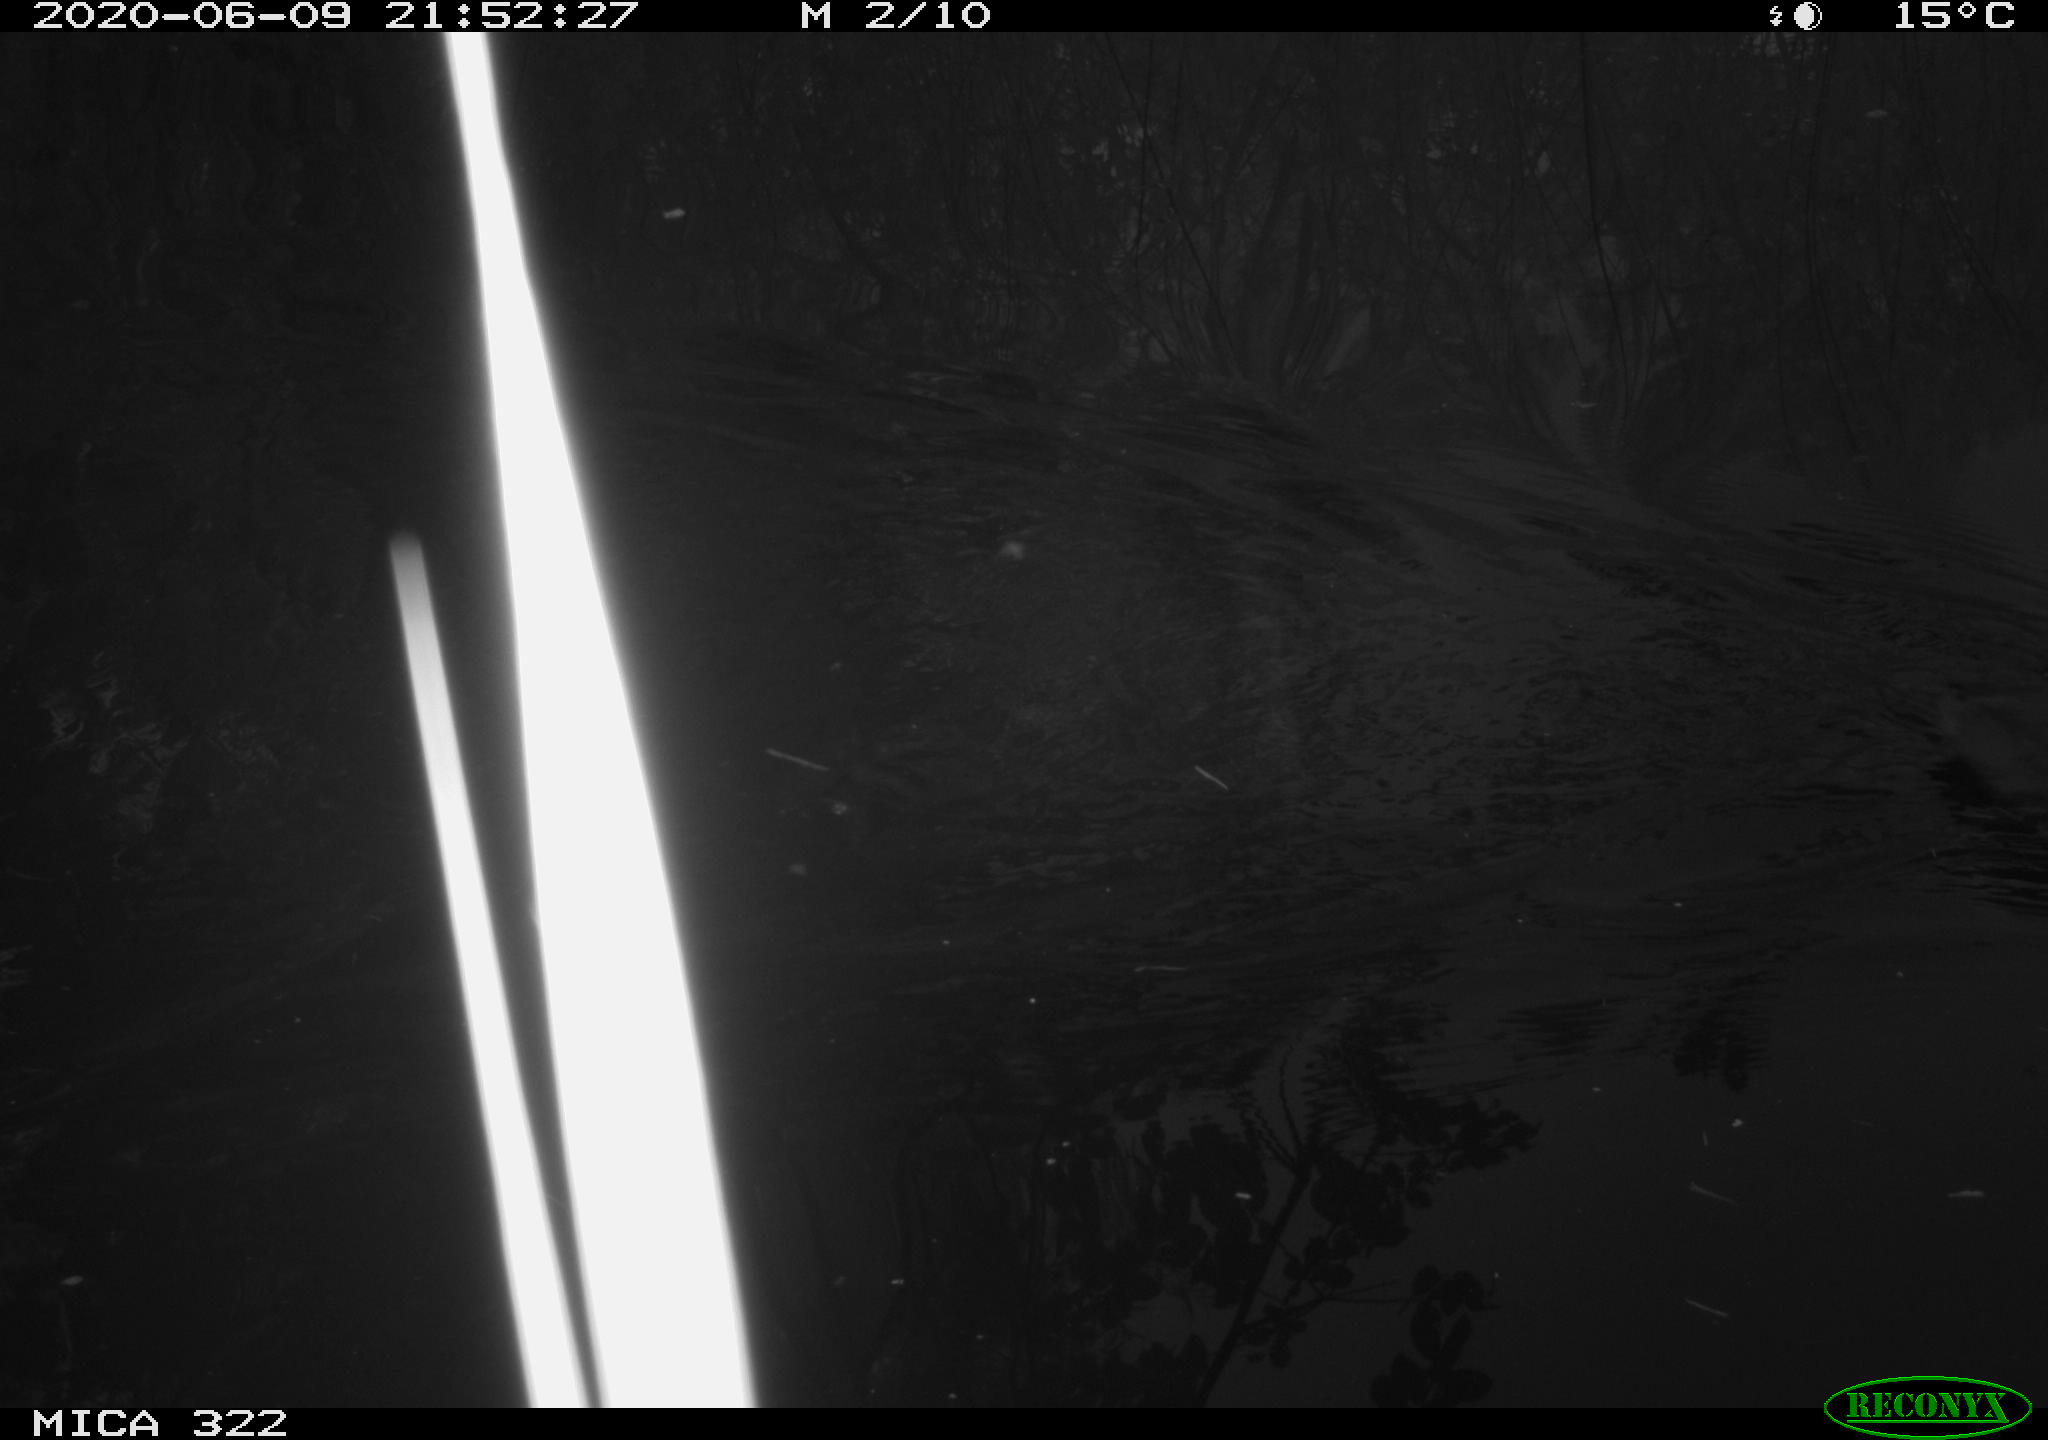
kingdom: Animalia
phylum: Chordata
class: Aves
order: Gruiformes
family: Rallidae
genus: Gallinula
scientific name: Gallinula chloropus
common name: Common moorhen
